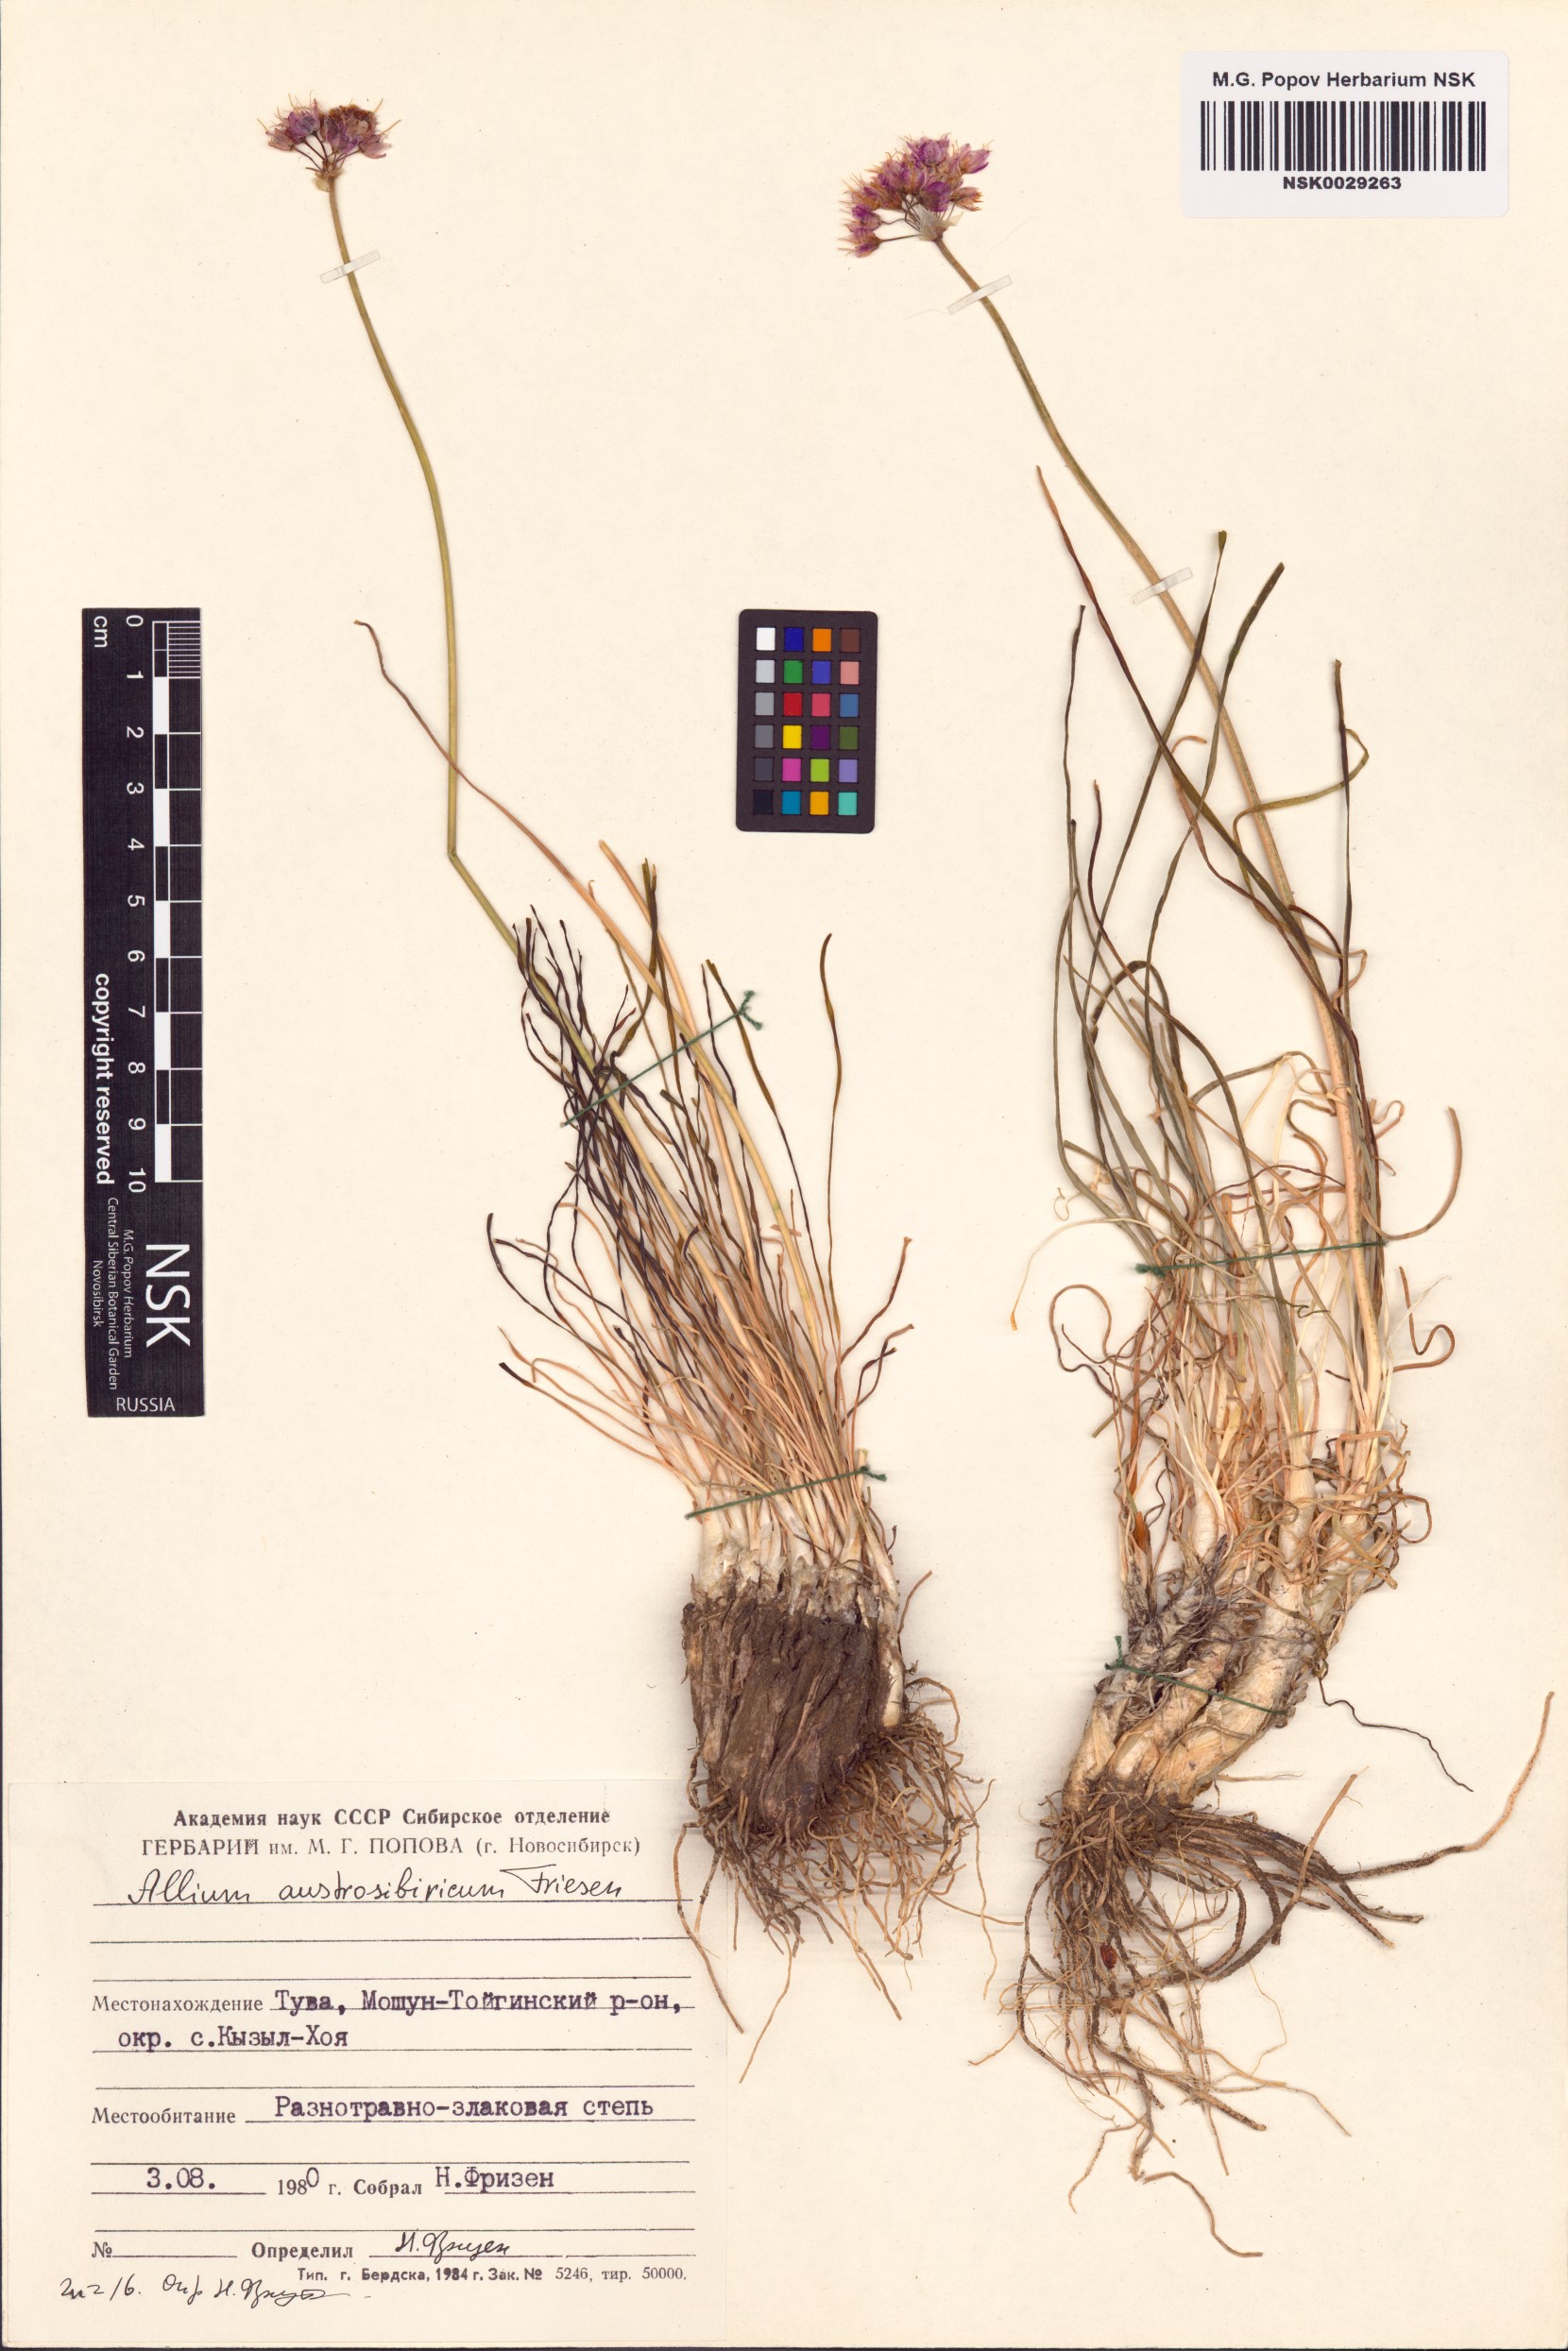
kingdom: Plantae
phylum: Tracheophyta
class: Liliopsida
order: Asparagales
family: Amaryllidaceae
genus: Allium
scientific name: Allium austrosibiricum
